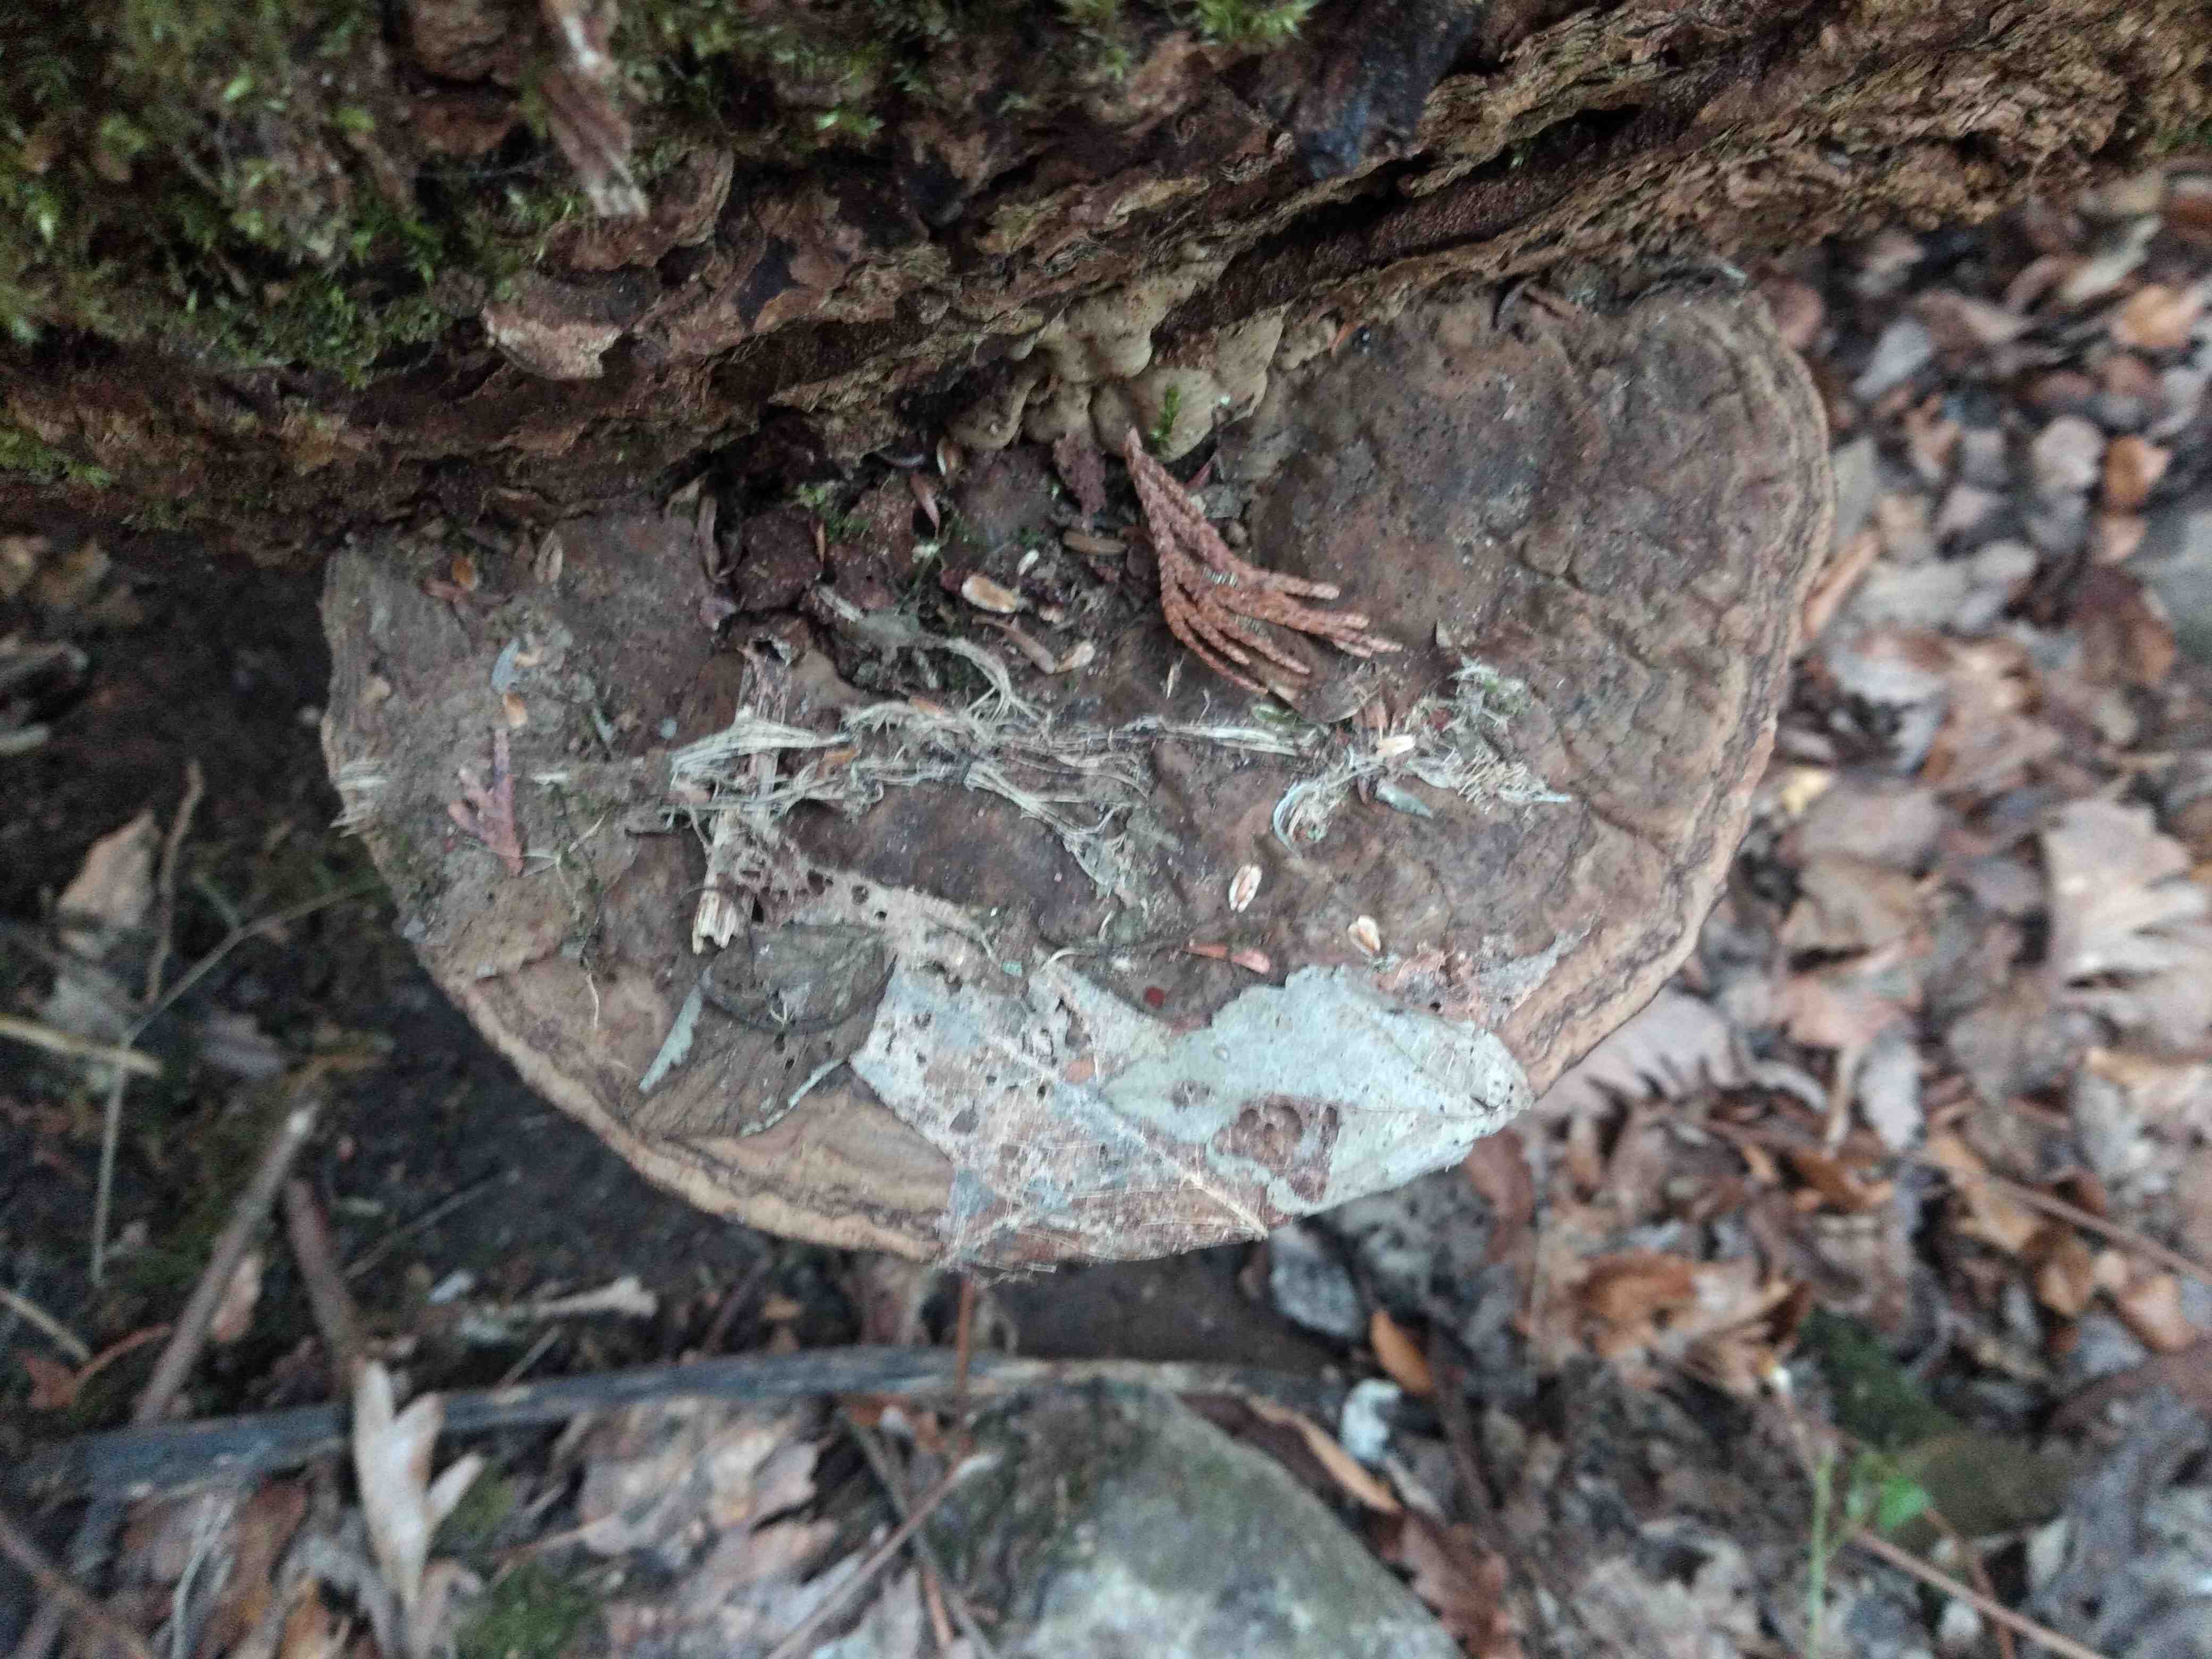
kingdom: Fungi
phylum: Basidiomycota
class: Agaricomycetes
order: Polyporales
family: Polyporaceae
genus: Ganoderma
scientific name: Ganoderma applanatum
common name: flad lakporesvamp
